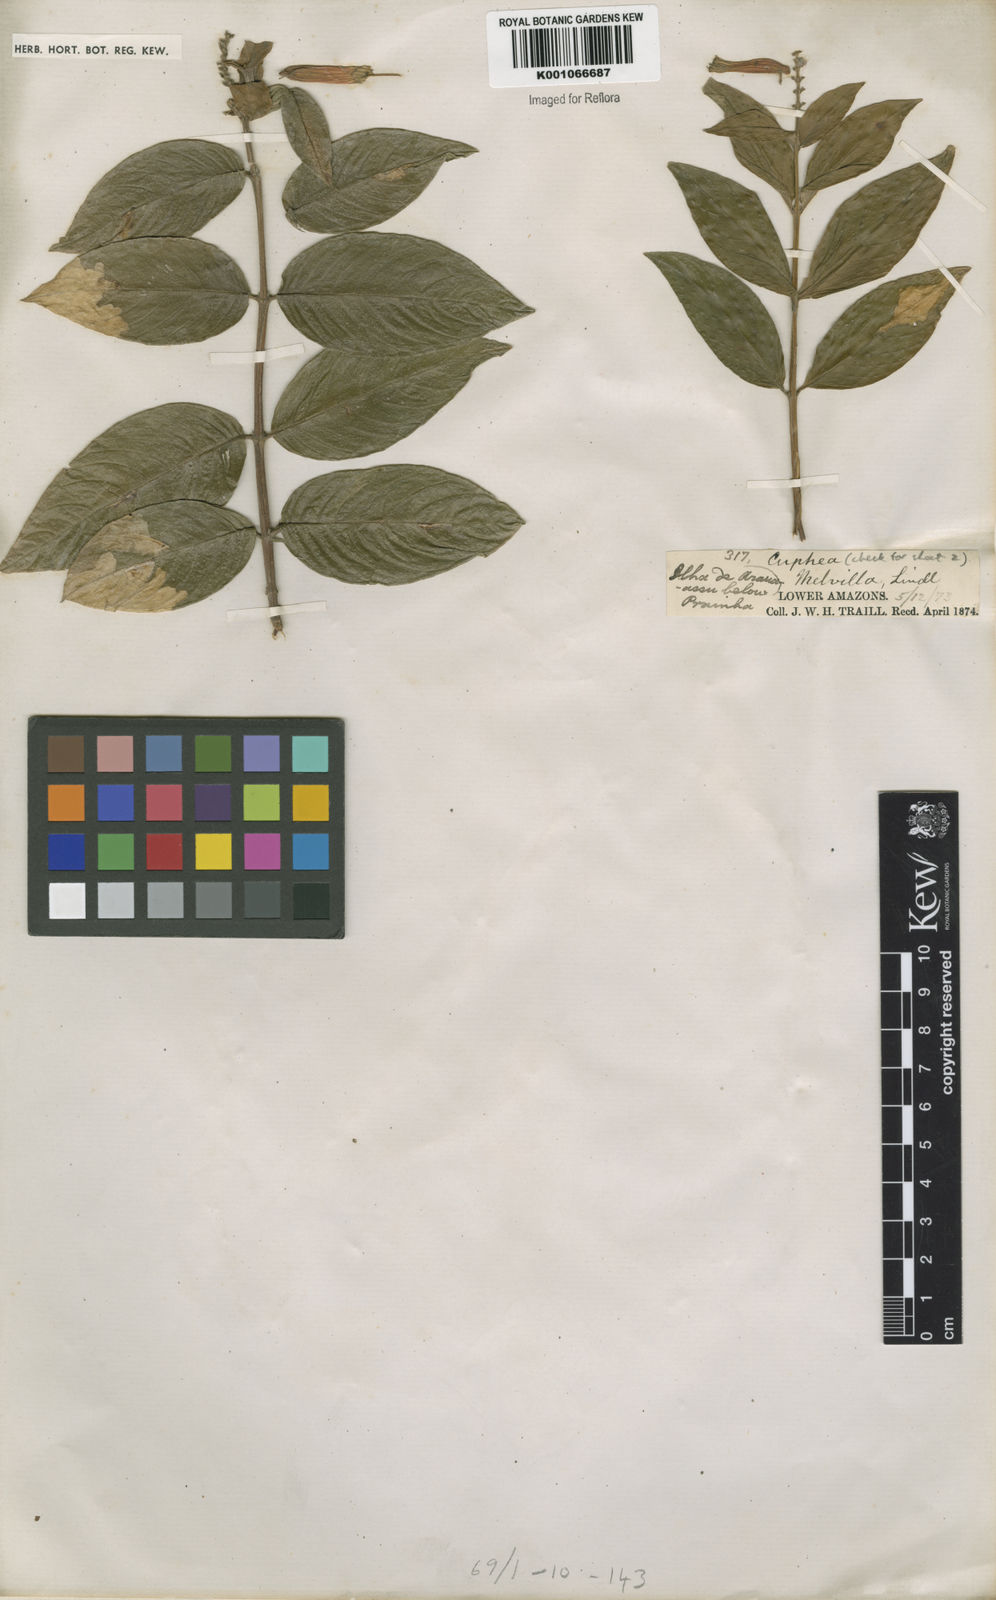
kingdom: Plantae
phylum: Tracheophyta
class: Magnoliopsida
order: Myrtales
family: Lythraceae
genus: Cuphea
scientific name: Cuphea melvilla
